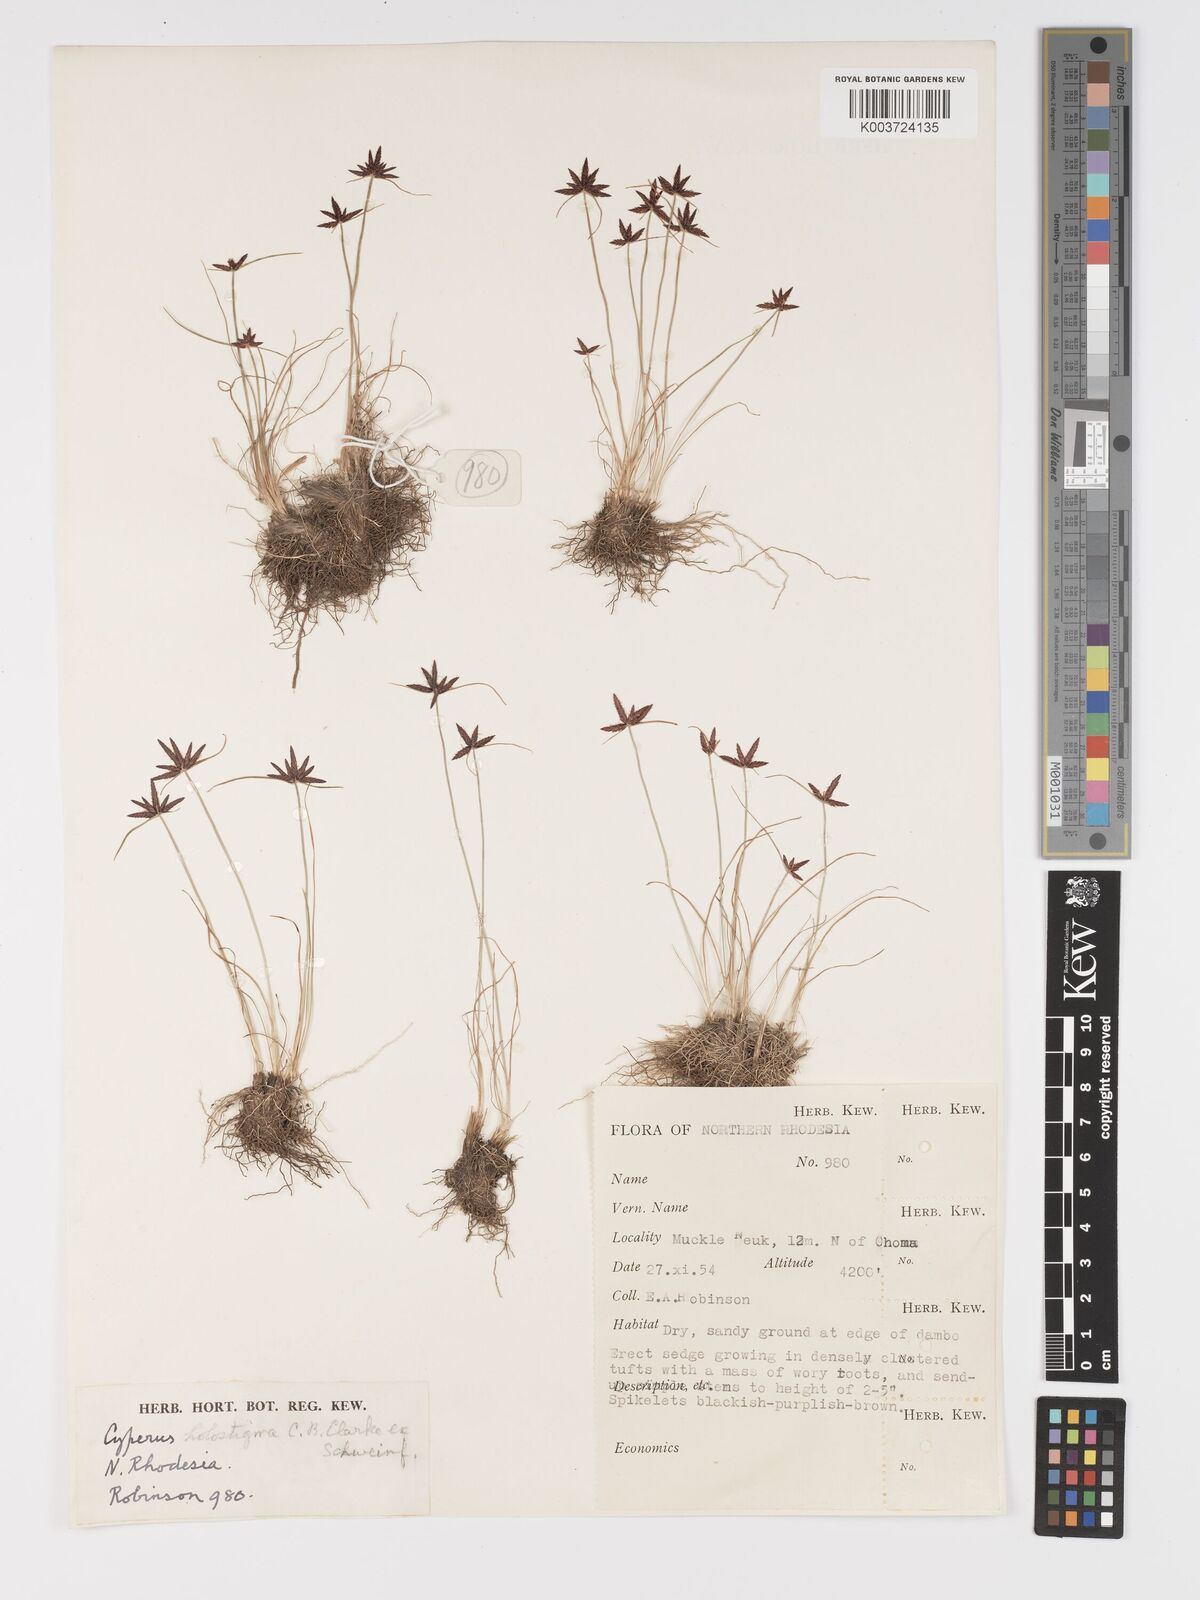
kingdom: Plantae
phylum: Tracheophyta
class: Liliopsida
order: Poales
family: Cyperaceae
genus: Cyperus
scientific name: Cyperus holostigma
